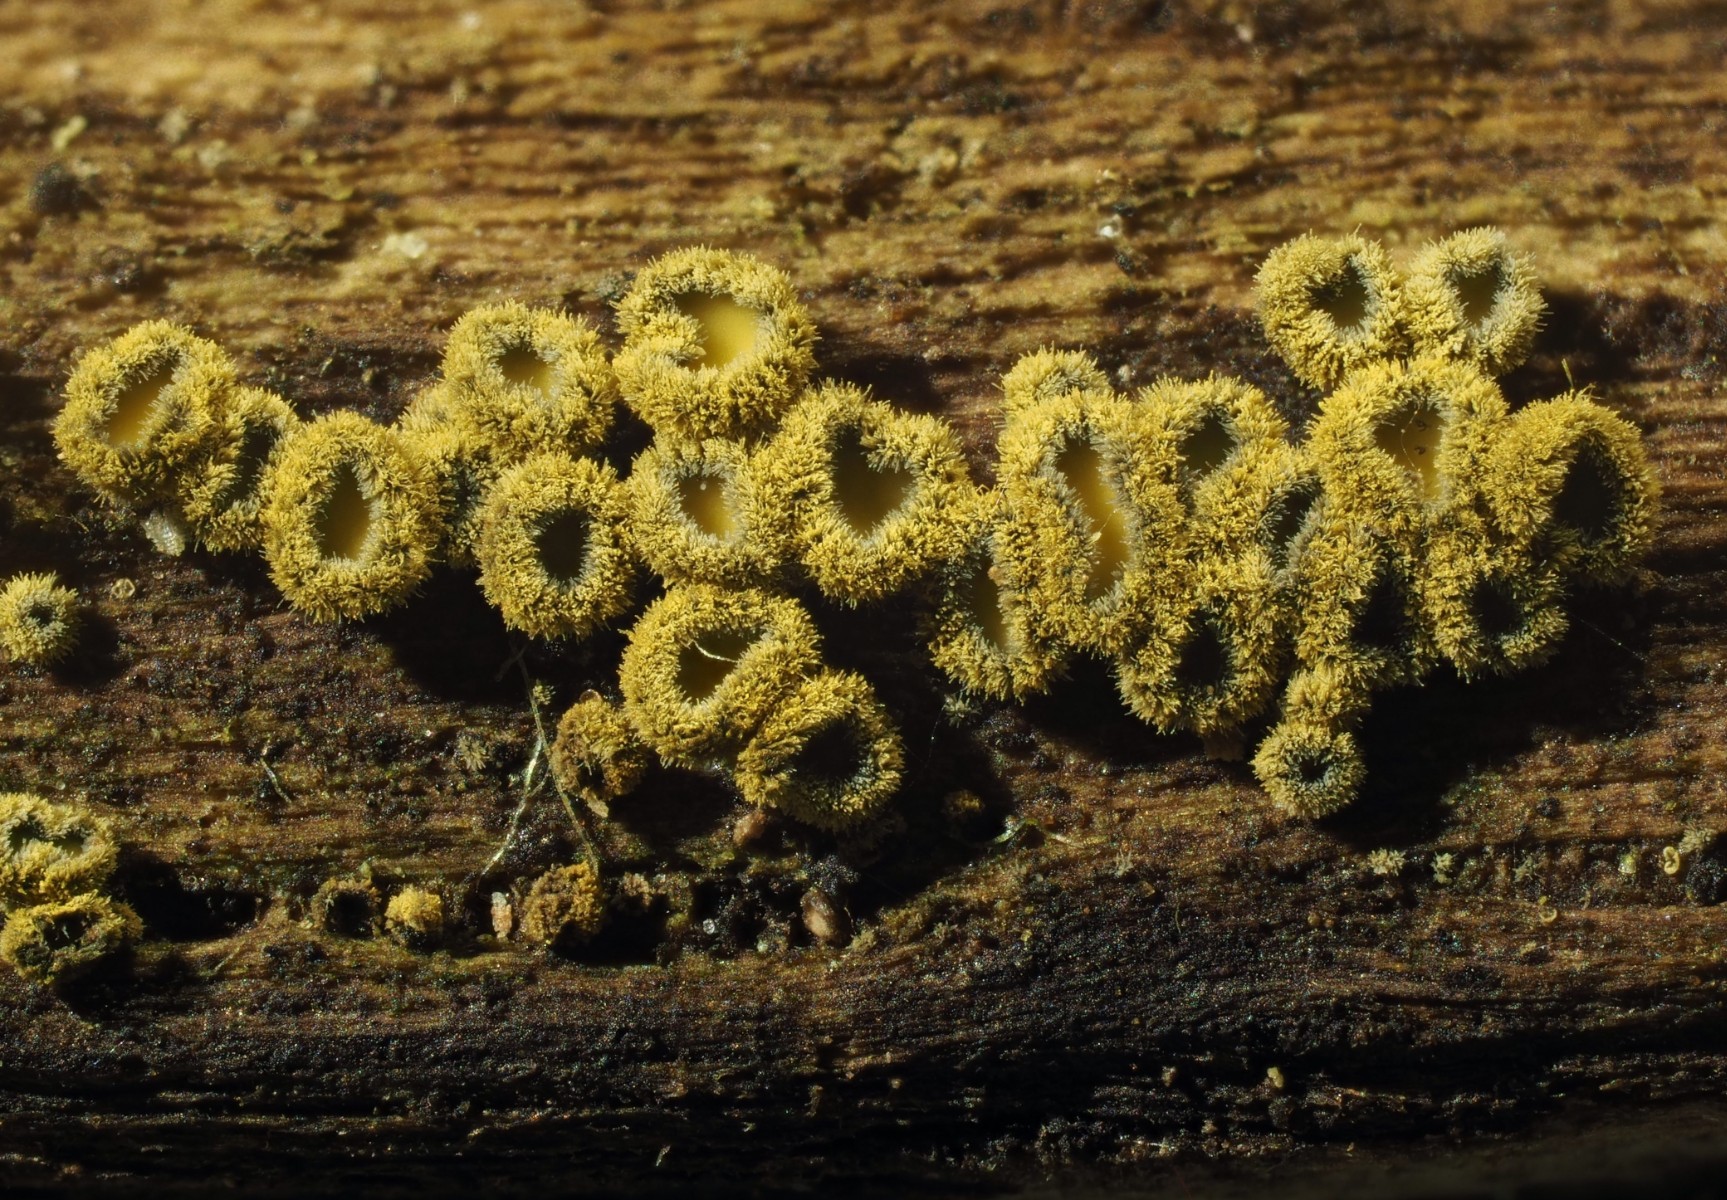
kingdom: Fungi
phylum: Ascomycota
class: Leotiomycetes
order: Helotiales
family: Lachnaceae
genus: Neodasyscypha
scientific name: Neodasyscypha cerina
